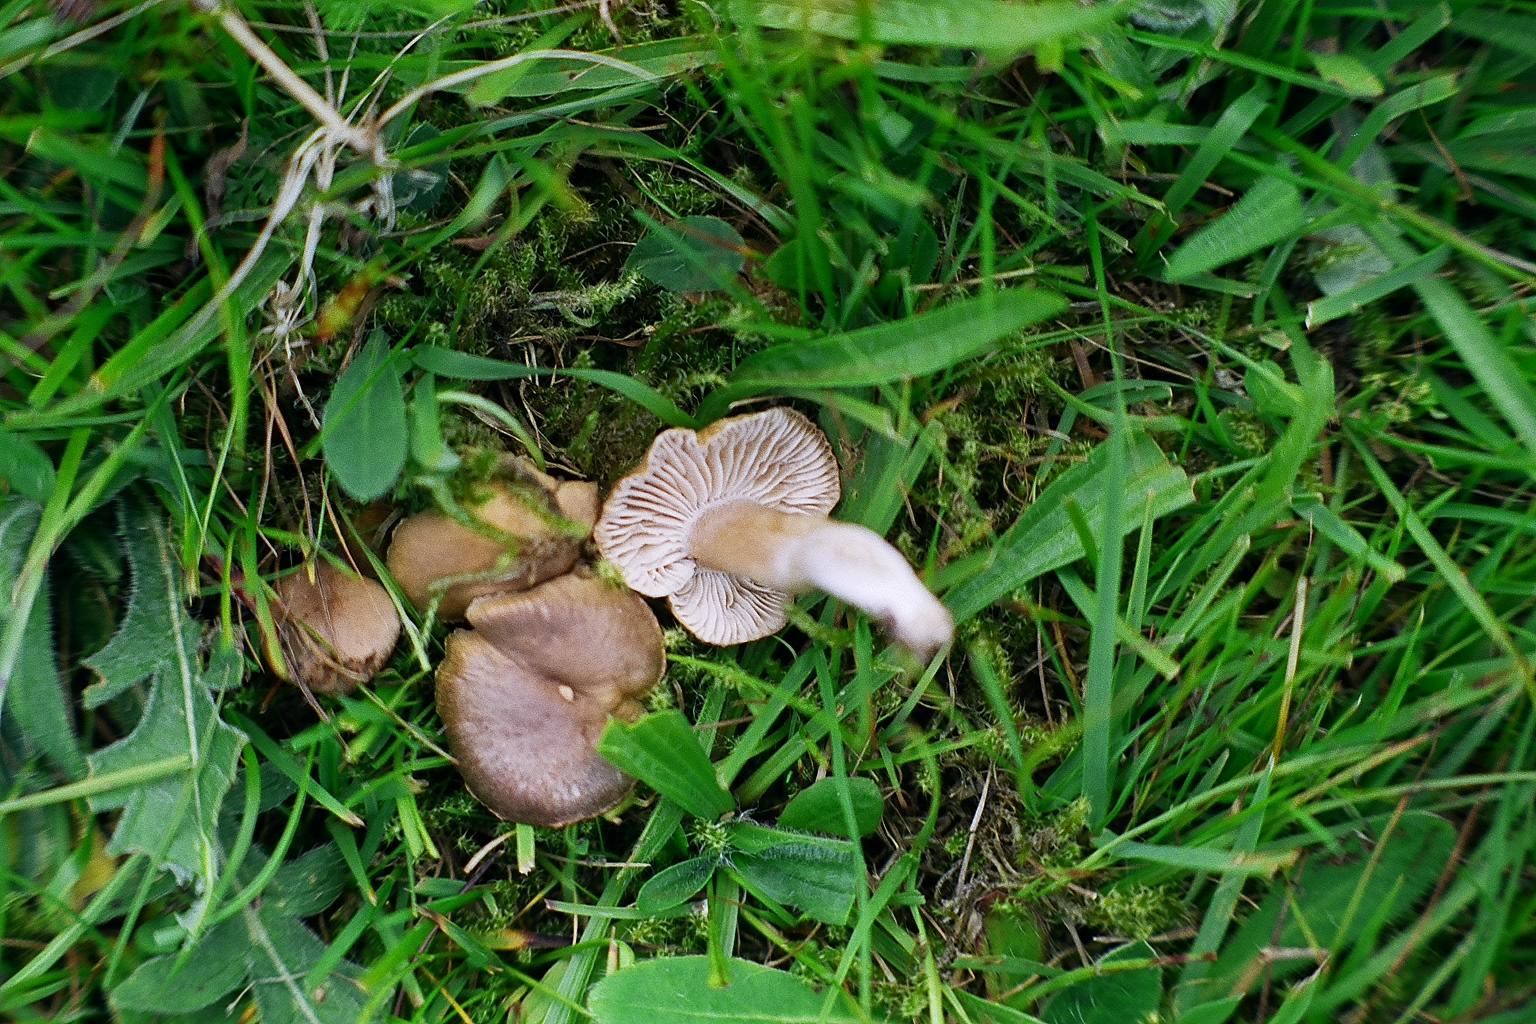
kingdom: Fungi
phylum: Basidiomycota
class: Agaricomycetes
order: Agaricales
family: Clavariaceae
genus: Camarophyllopsis
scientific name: Camarophyllopsis schulzeri
